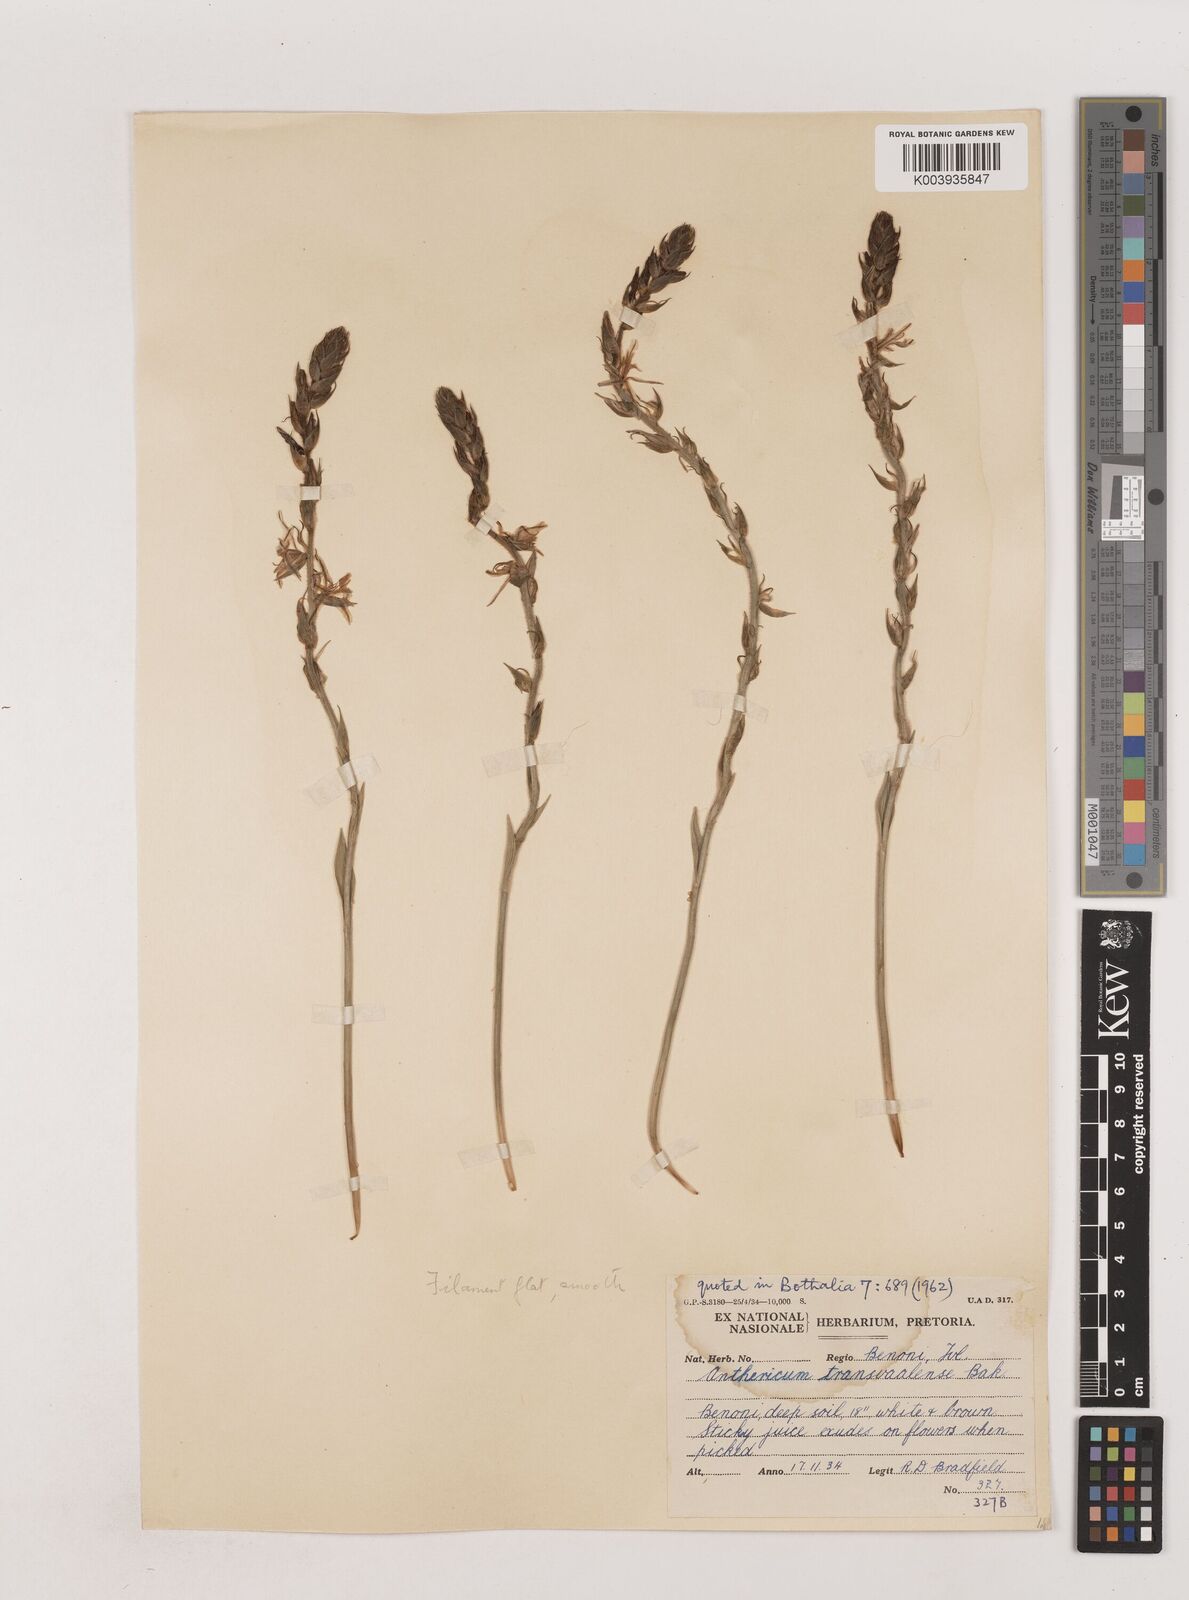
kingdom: Plantae
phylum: Tracheophyta
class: Liliopsida
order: Asparagales
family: Asparagaceae
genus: Chlorophytum
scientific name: Chlorophytum transvaalense
